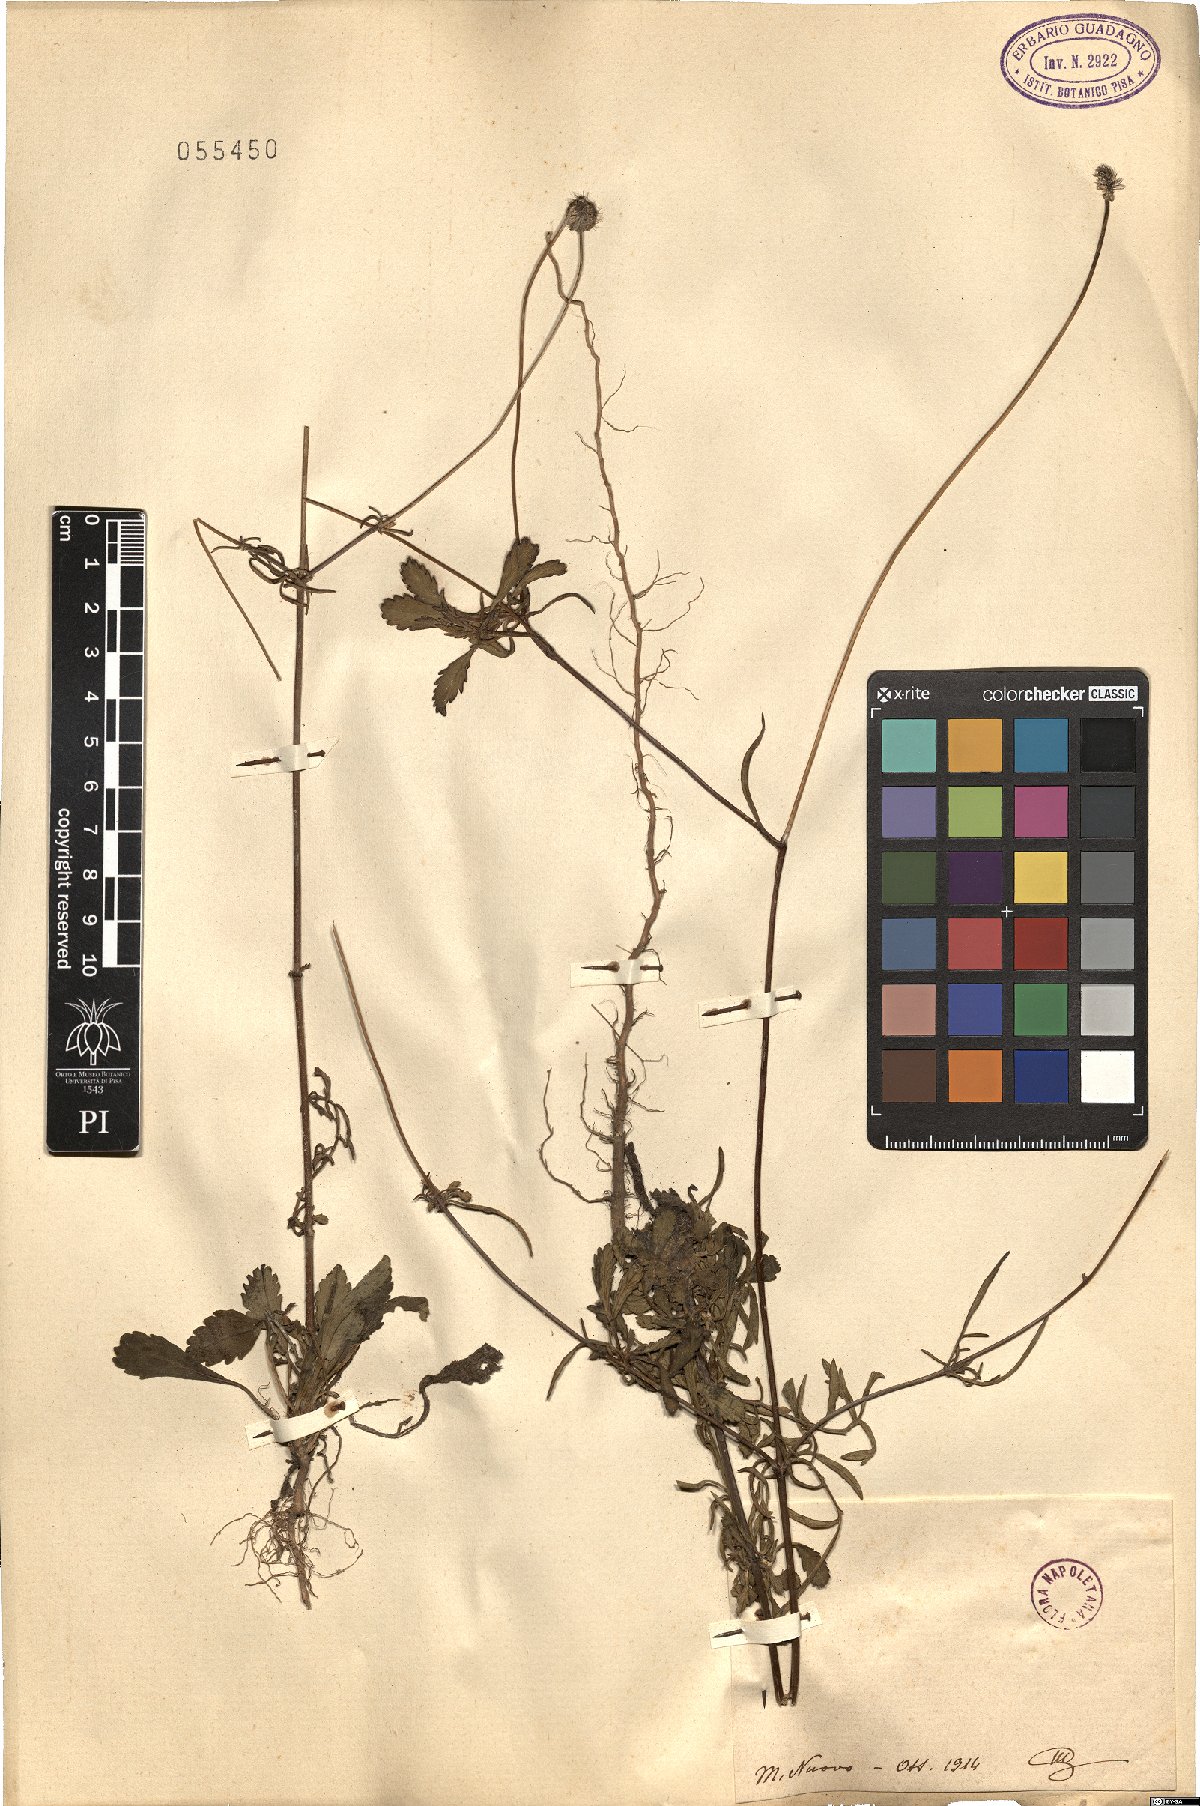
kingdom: Plantae
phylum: Tracheophyta
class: Magnoliopsida
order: Dipsacales
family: Caprifoliaceae
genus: Sixalix
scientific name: Sixalix maritima
